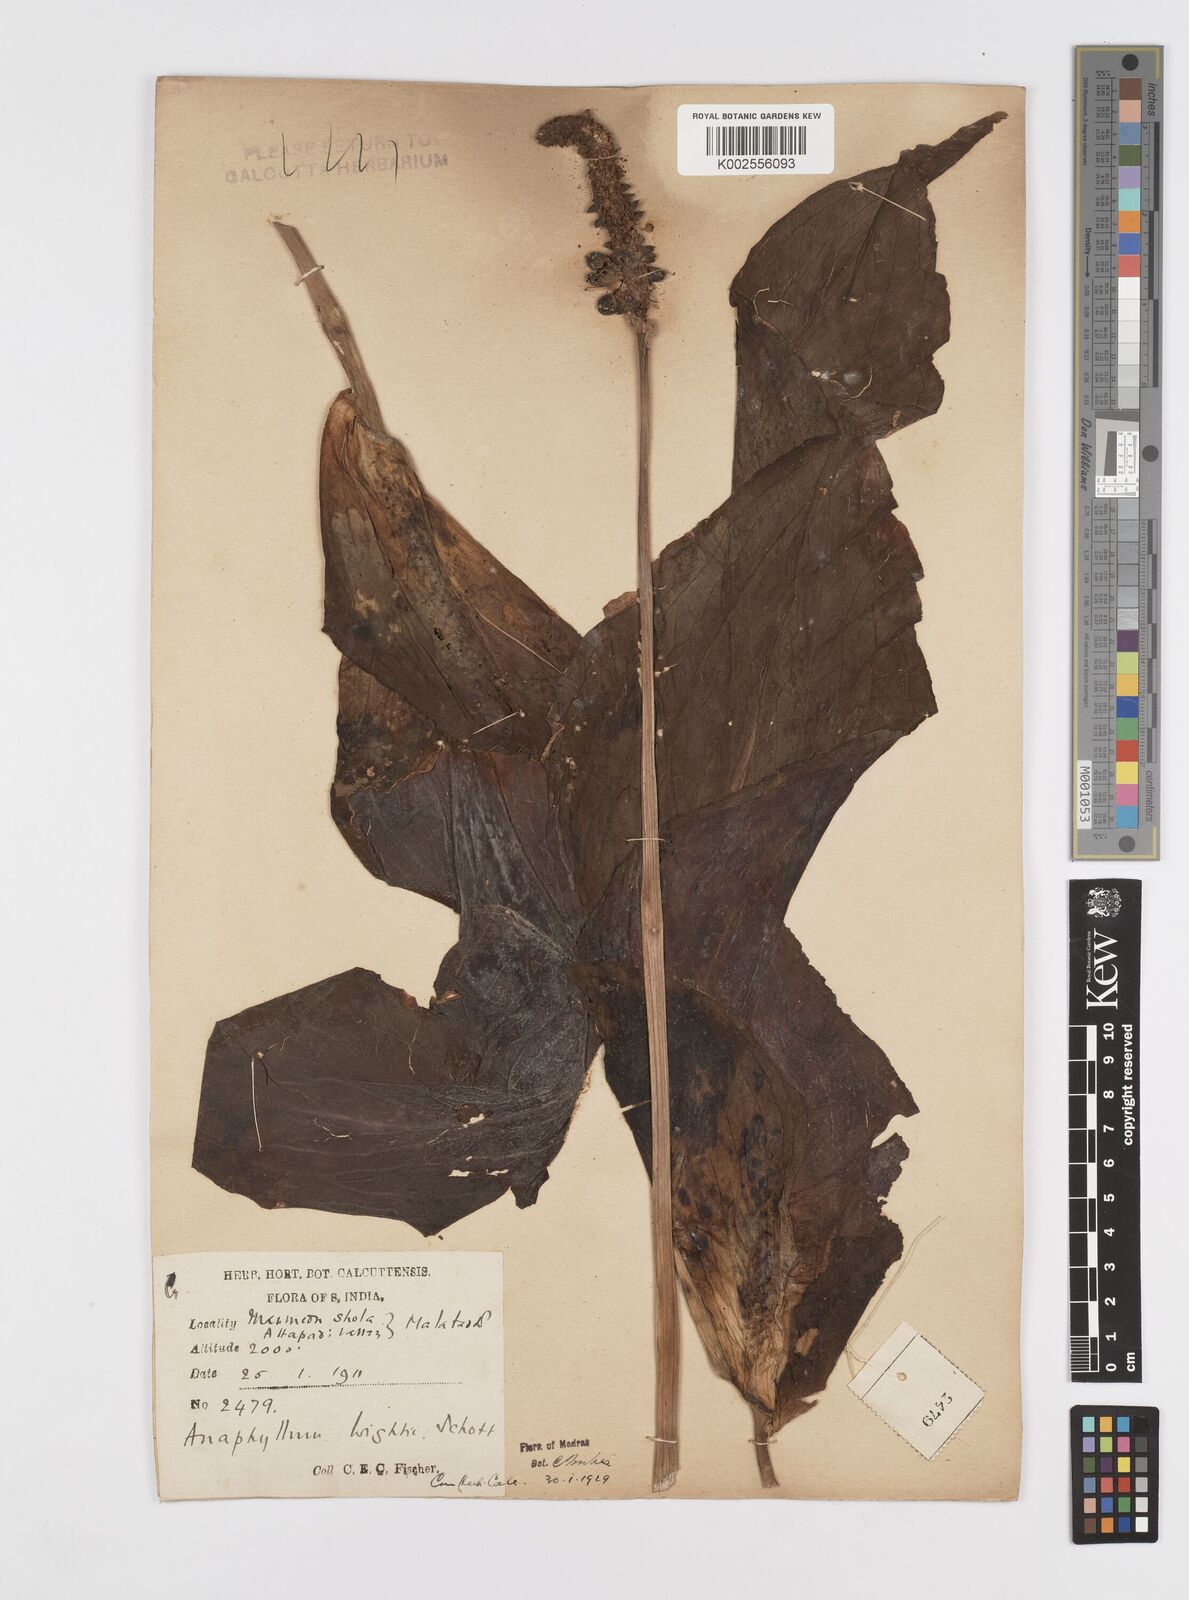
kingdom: Plantae
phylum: Tracheophyta
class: Liliopsida
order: Alismatales
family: Araceae
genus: Anaphyllum
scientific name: Anaphyllum wightii
